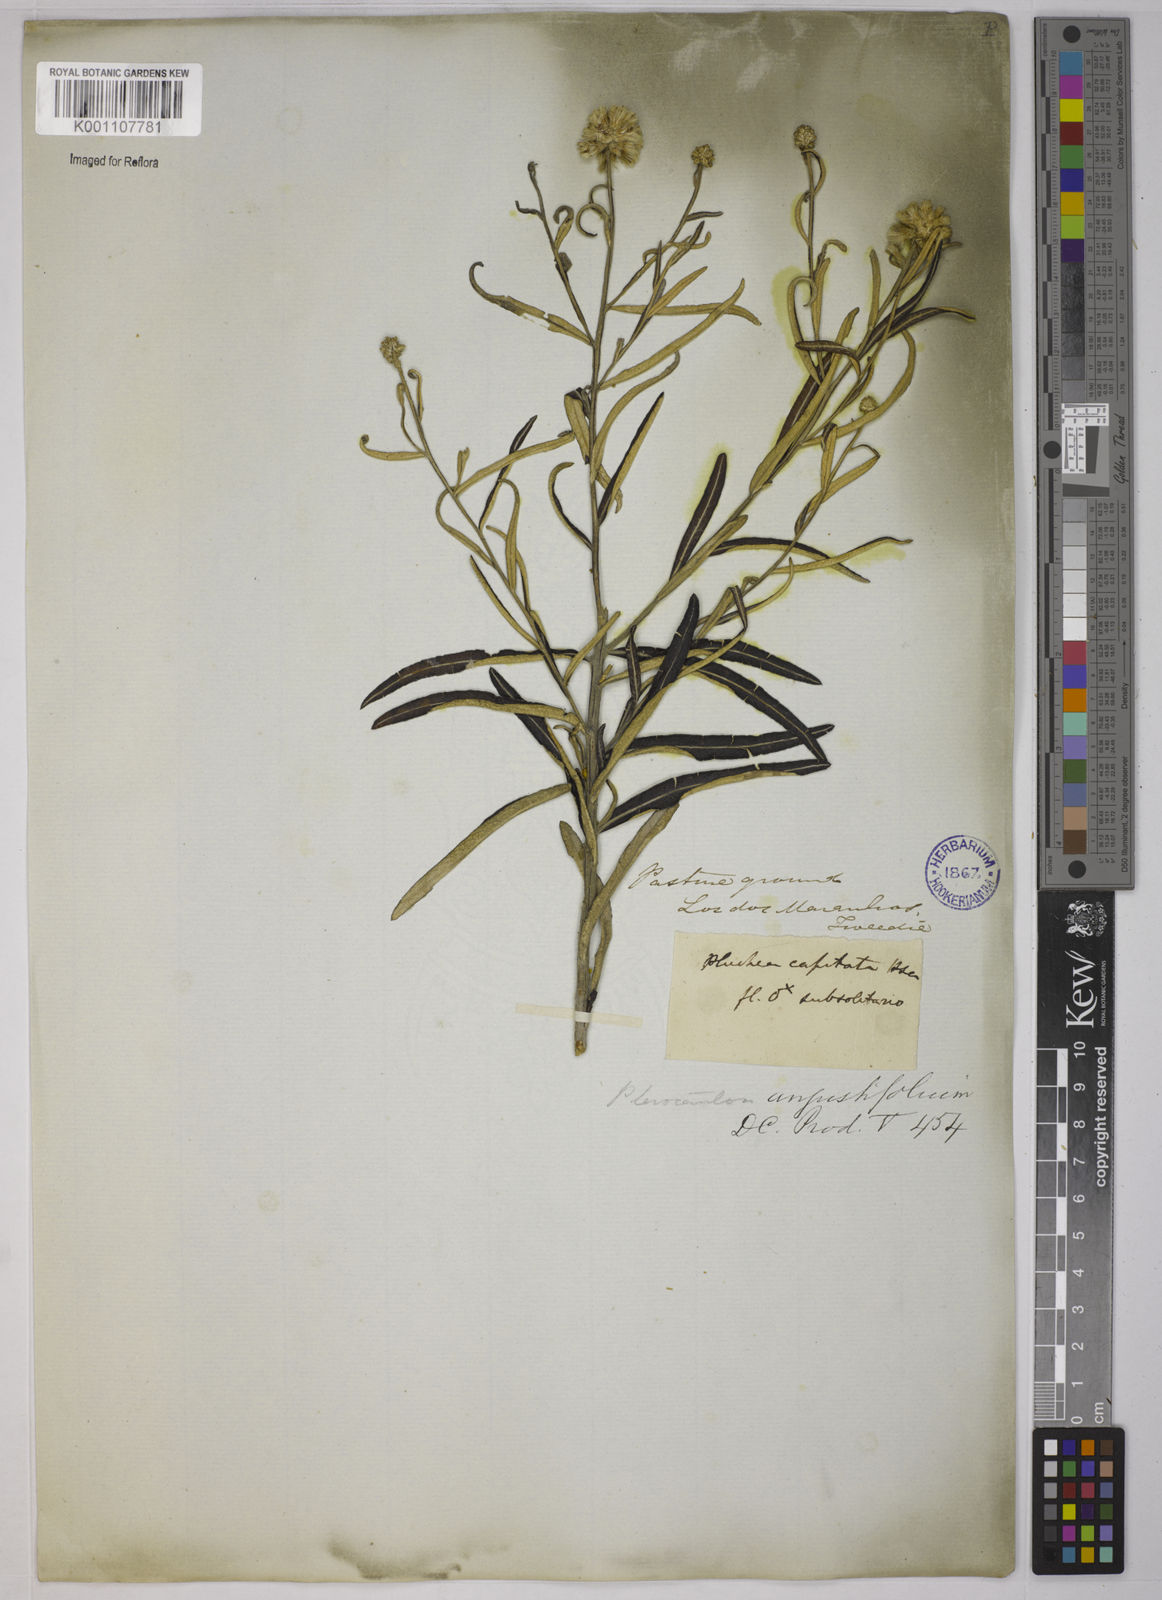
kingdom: Plantae
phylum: Tracheophyta
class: Magnoliopsida
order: Asterales
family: Asteraceae
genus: Pterocaulon
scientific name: Pterocaulon angustifolium
